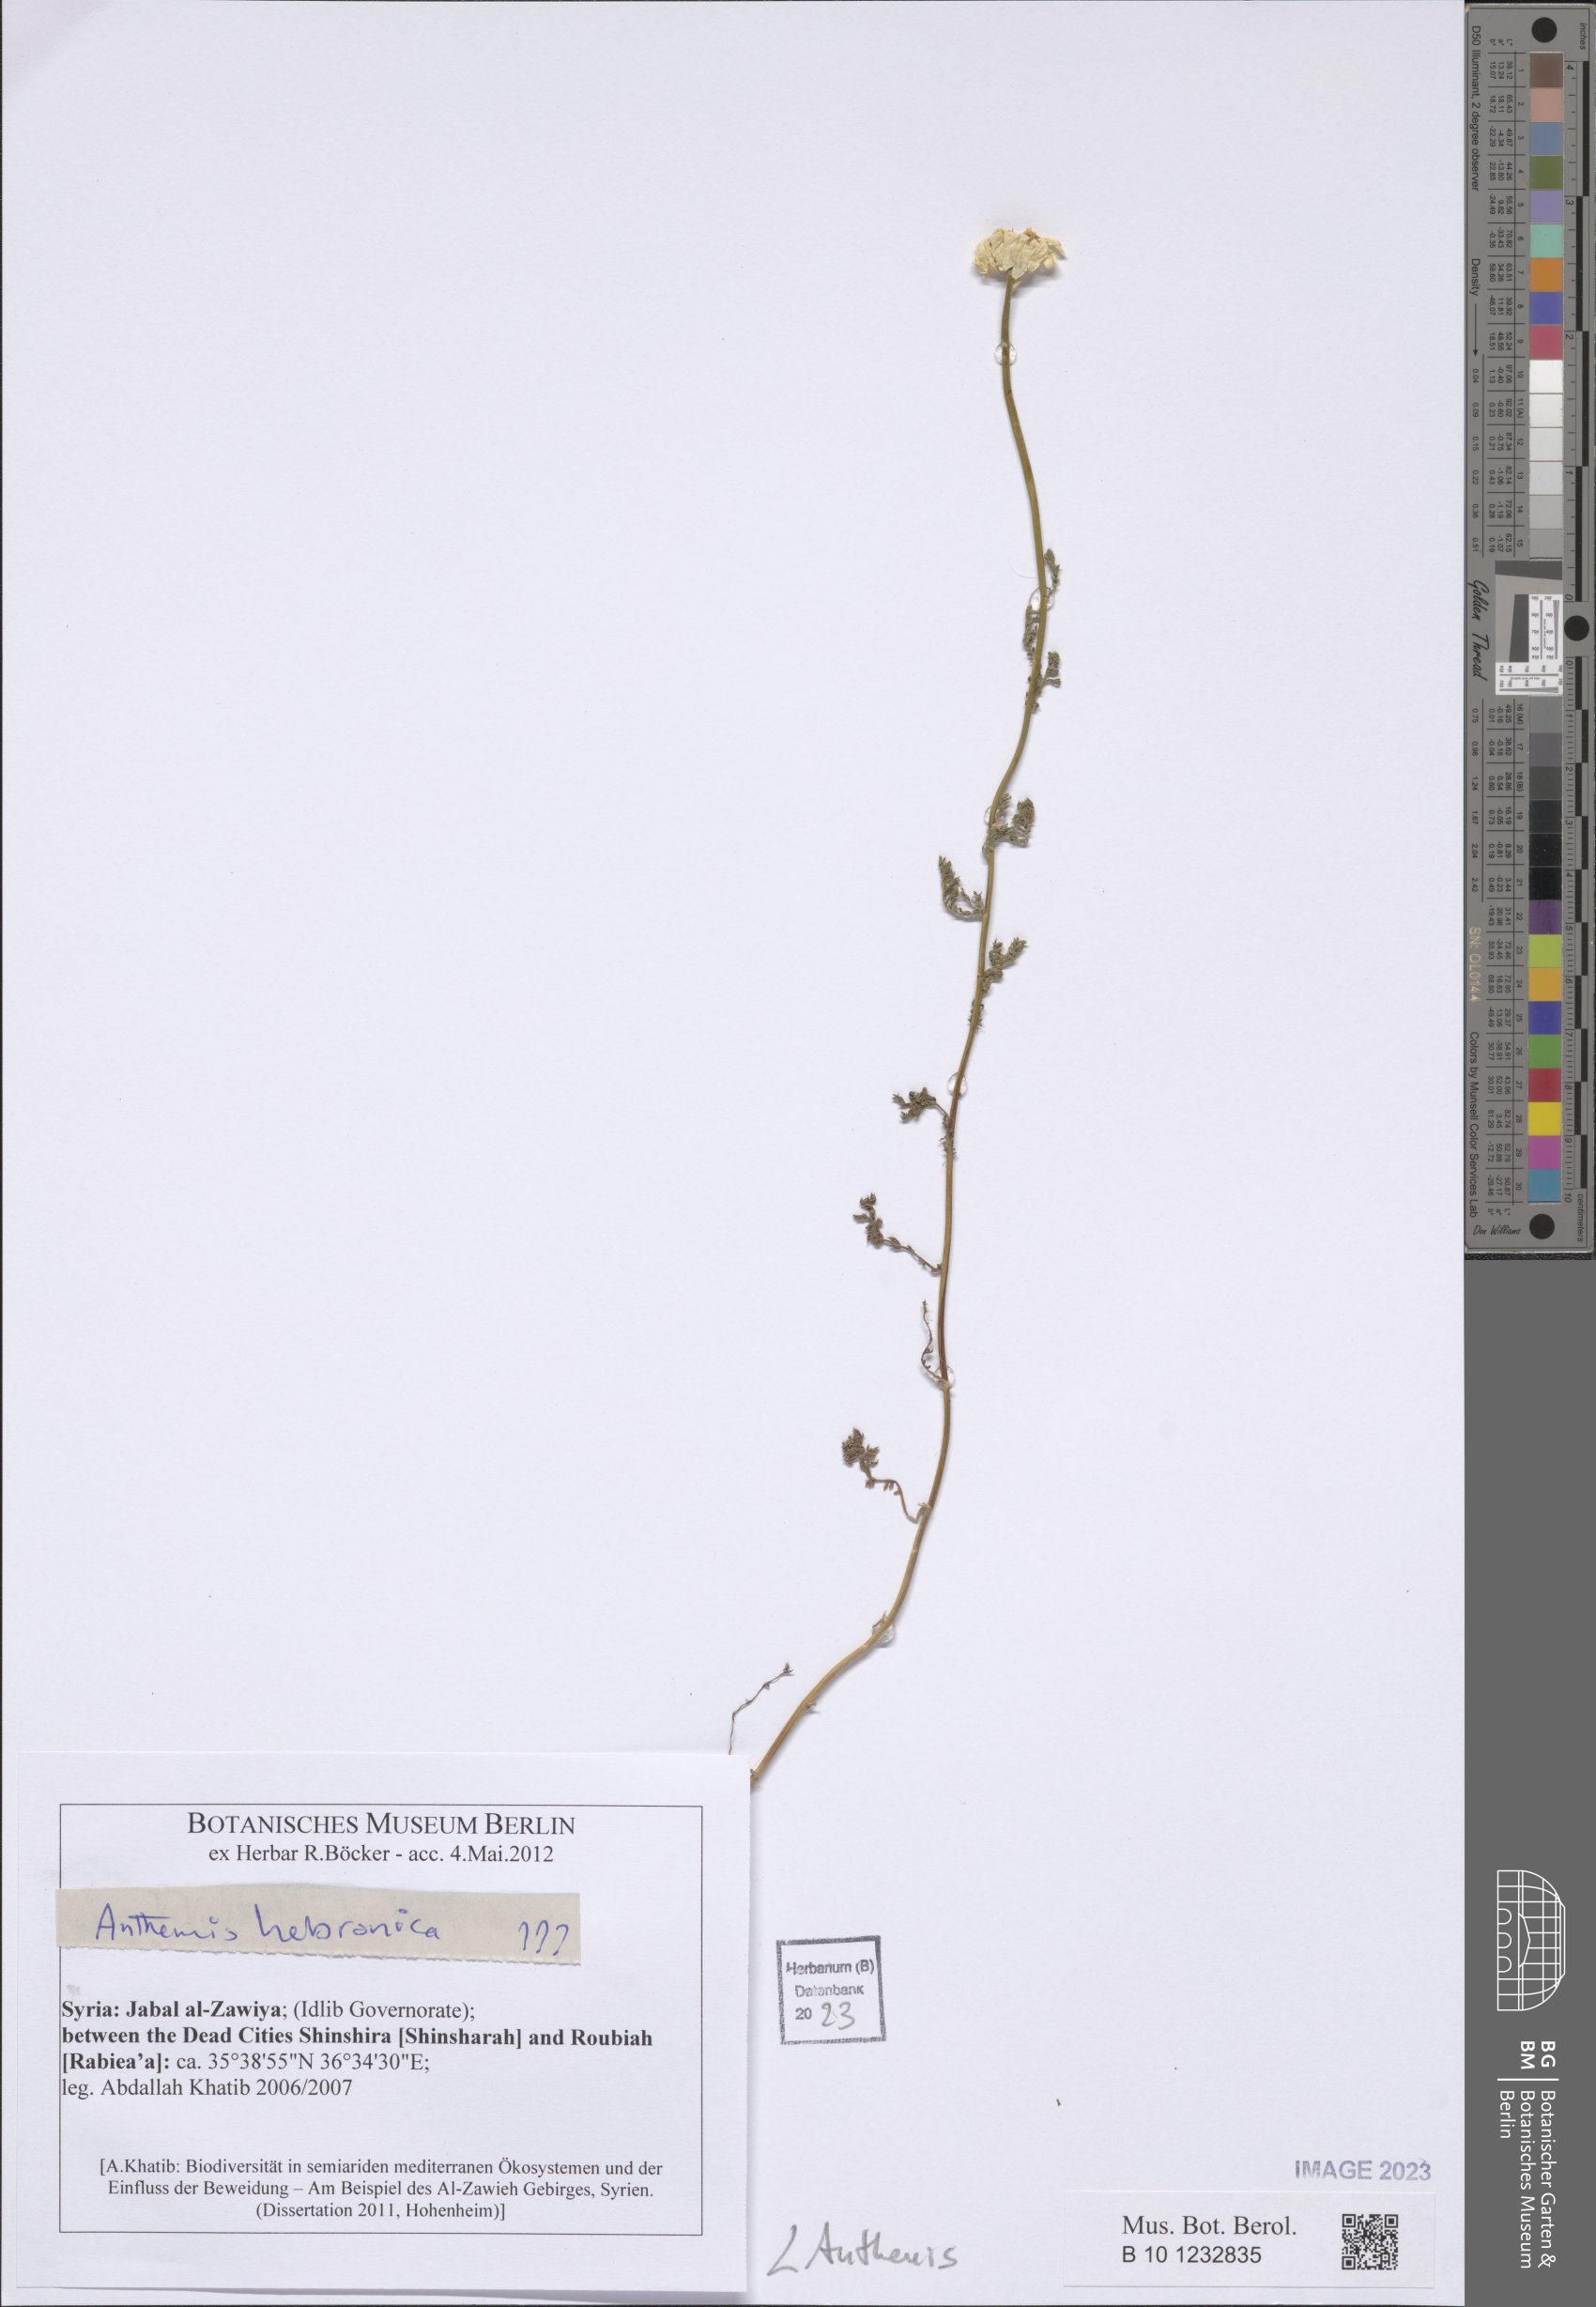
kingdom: Plantae
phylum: Tracheophyta
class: Magnoliopsida
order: Asterales
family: Asteraceae
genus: Anthemis
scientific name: Anthemis
